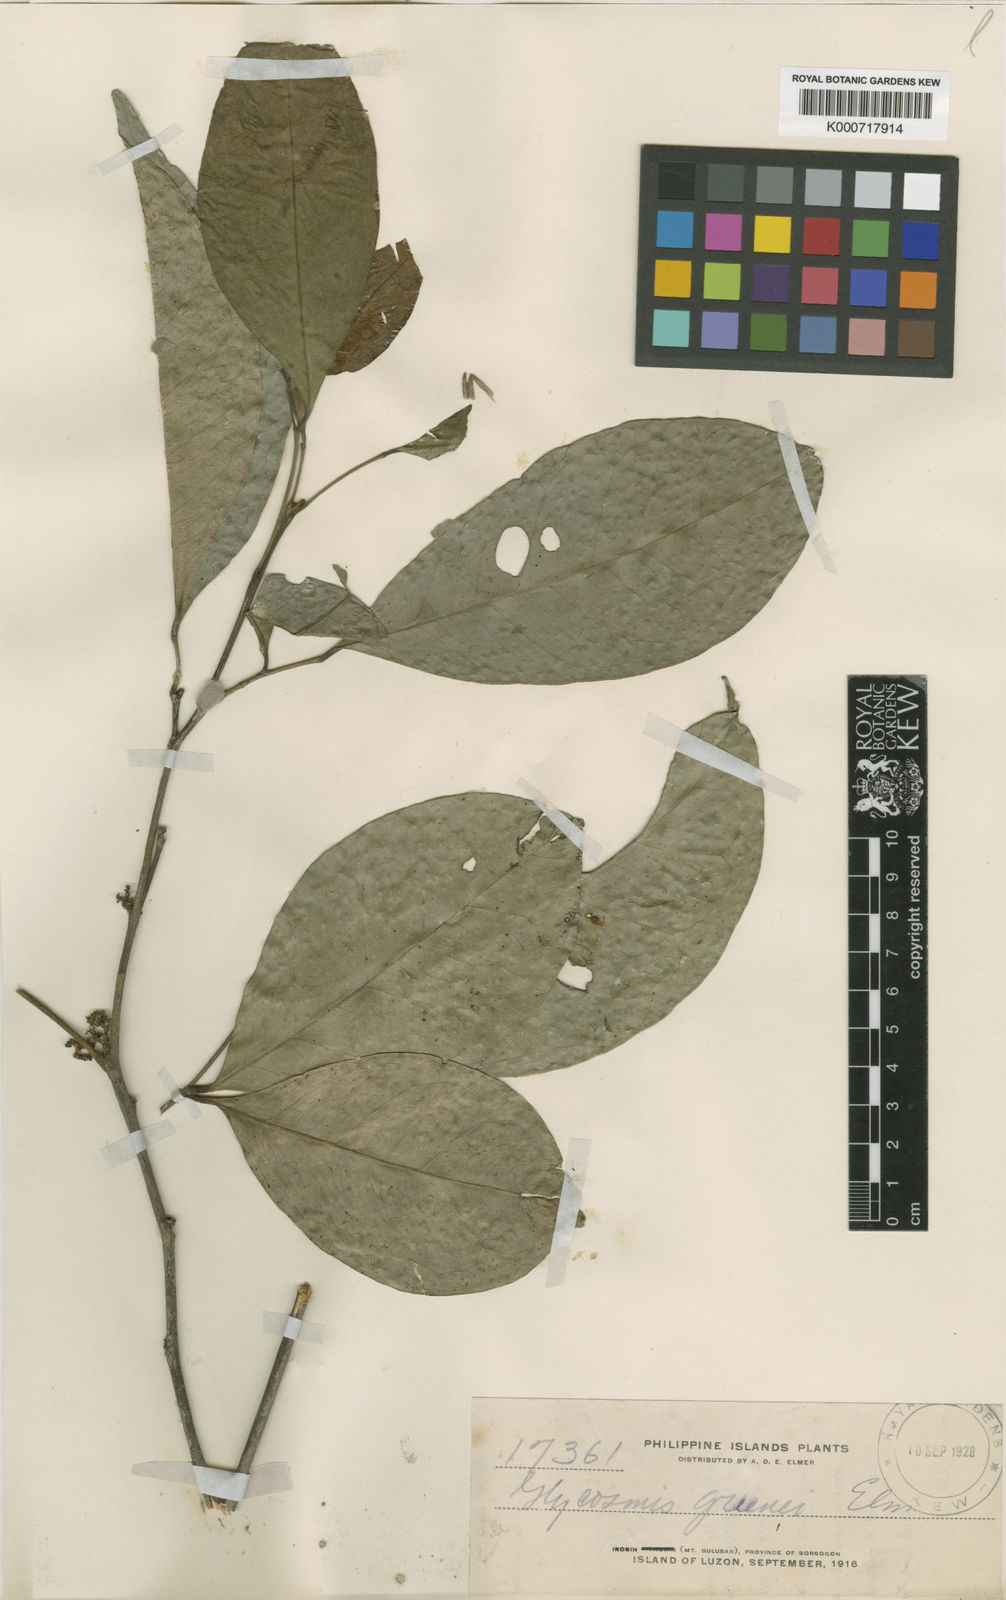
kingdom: Plantae
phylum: Tracheophyta
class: Magnoliopsida
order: Sapindales
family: Rutaceae
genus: Glycosmis
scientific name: Glycosmis greenei
